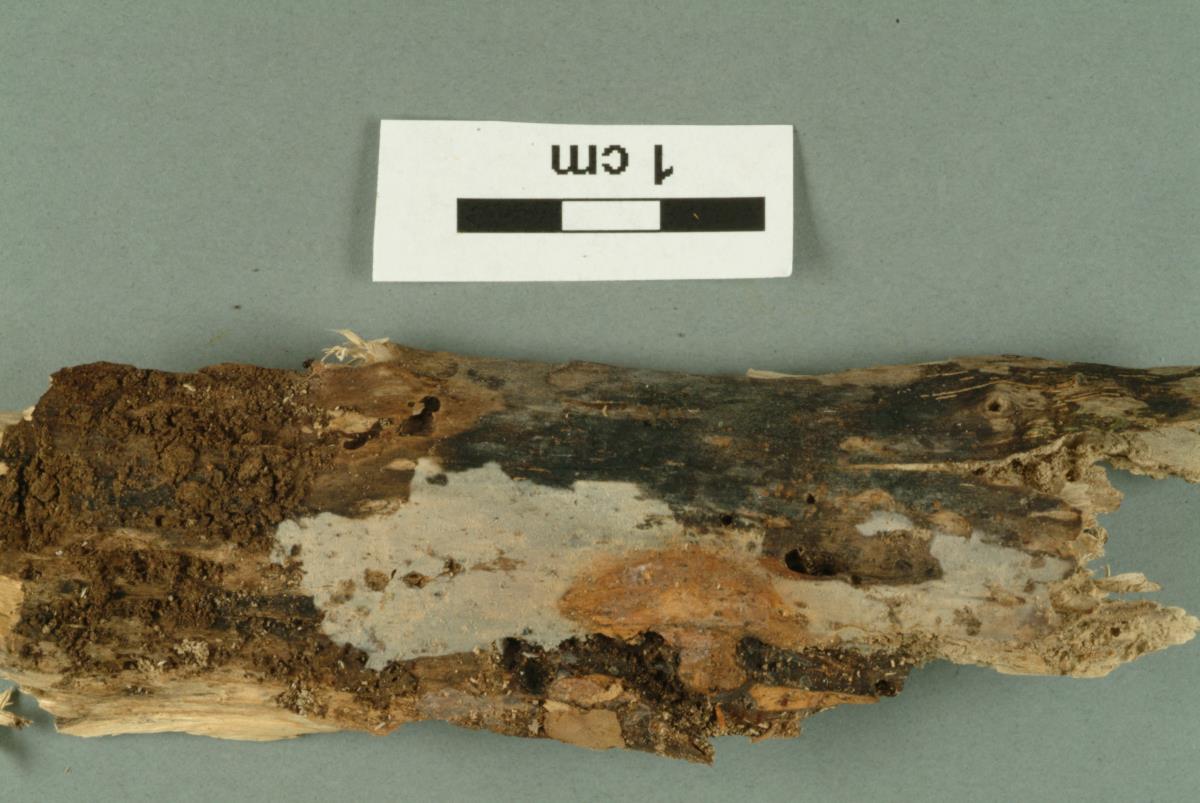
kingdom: Fungi
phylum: Basidiomycota
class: Agaricomycetes
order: Russulales
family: Xenasmataceae
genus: Xenasma
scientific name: Xenasma rimicola
